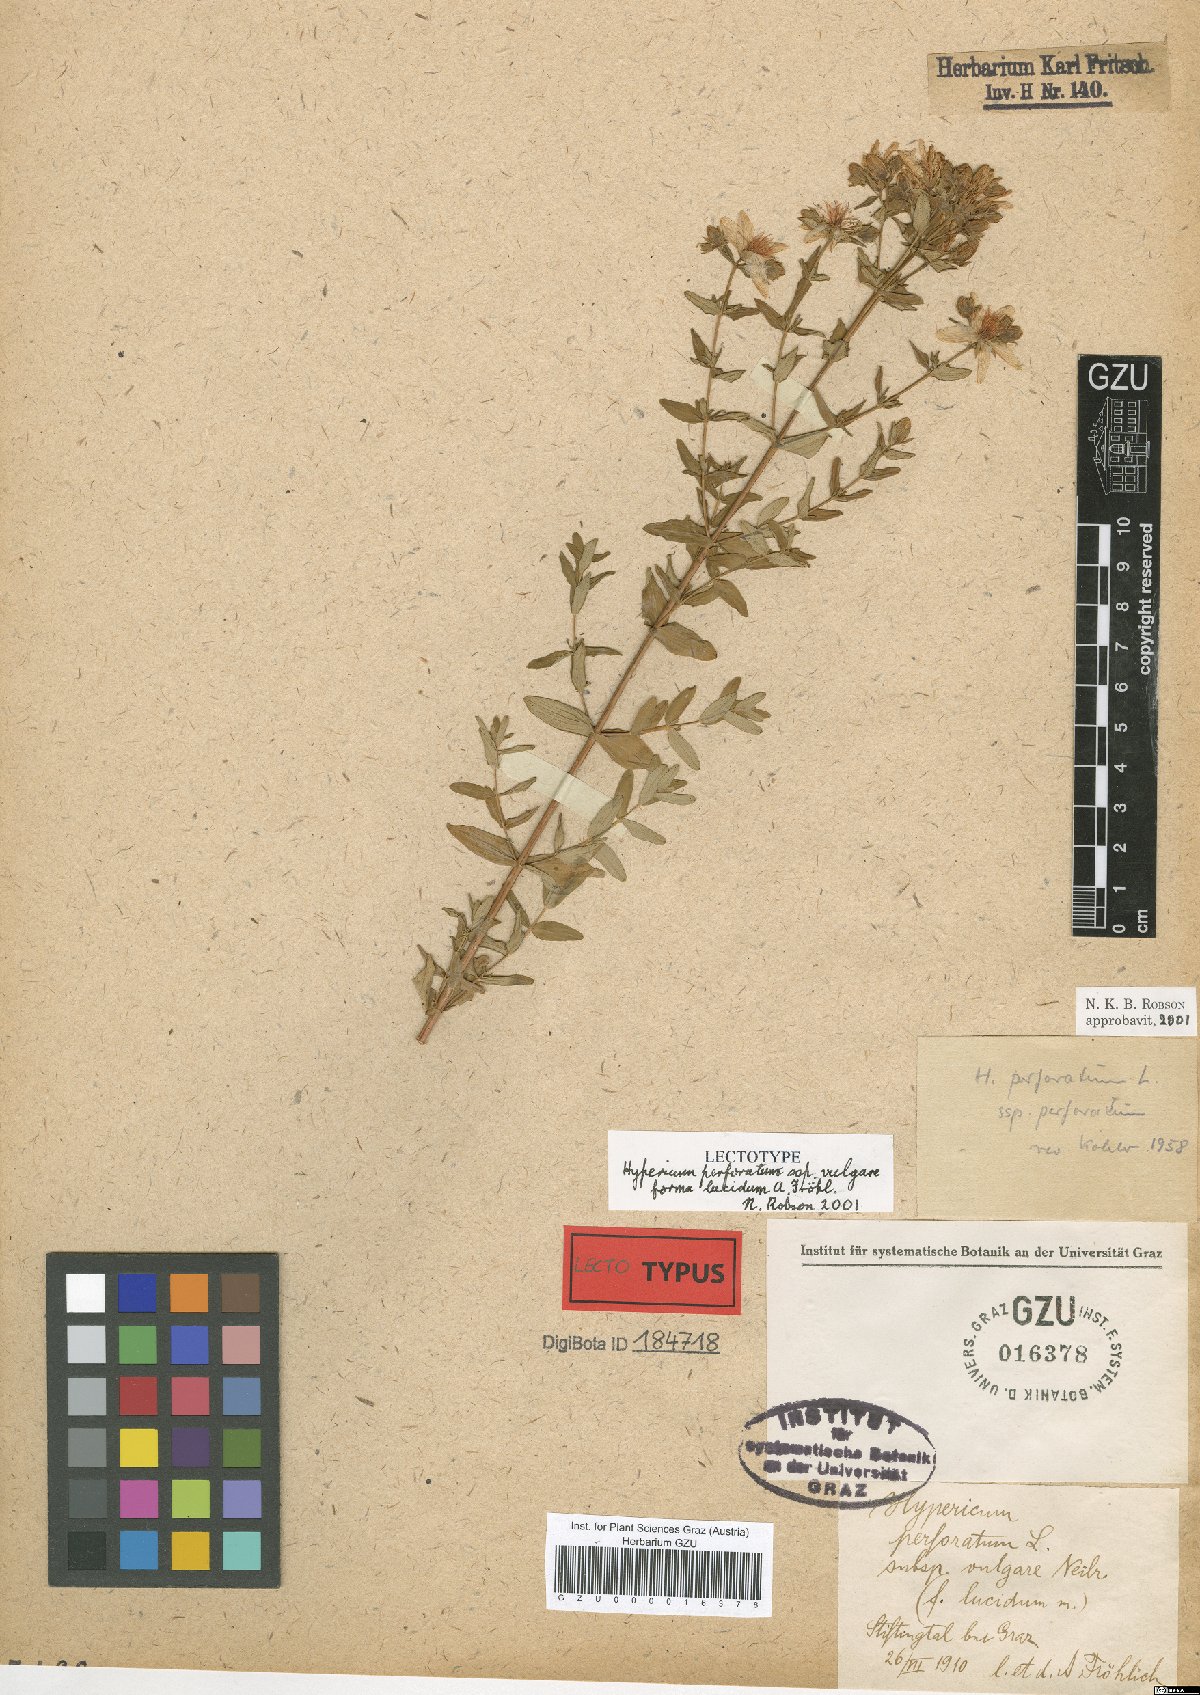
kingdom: Plantae
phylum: Tracheophyta
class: Magnoliopsida
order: Malpighiales
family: Hypericaceae
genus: Hypericum
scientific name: Hypericum perforatum
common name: Common st. johnswort
